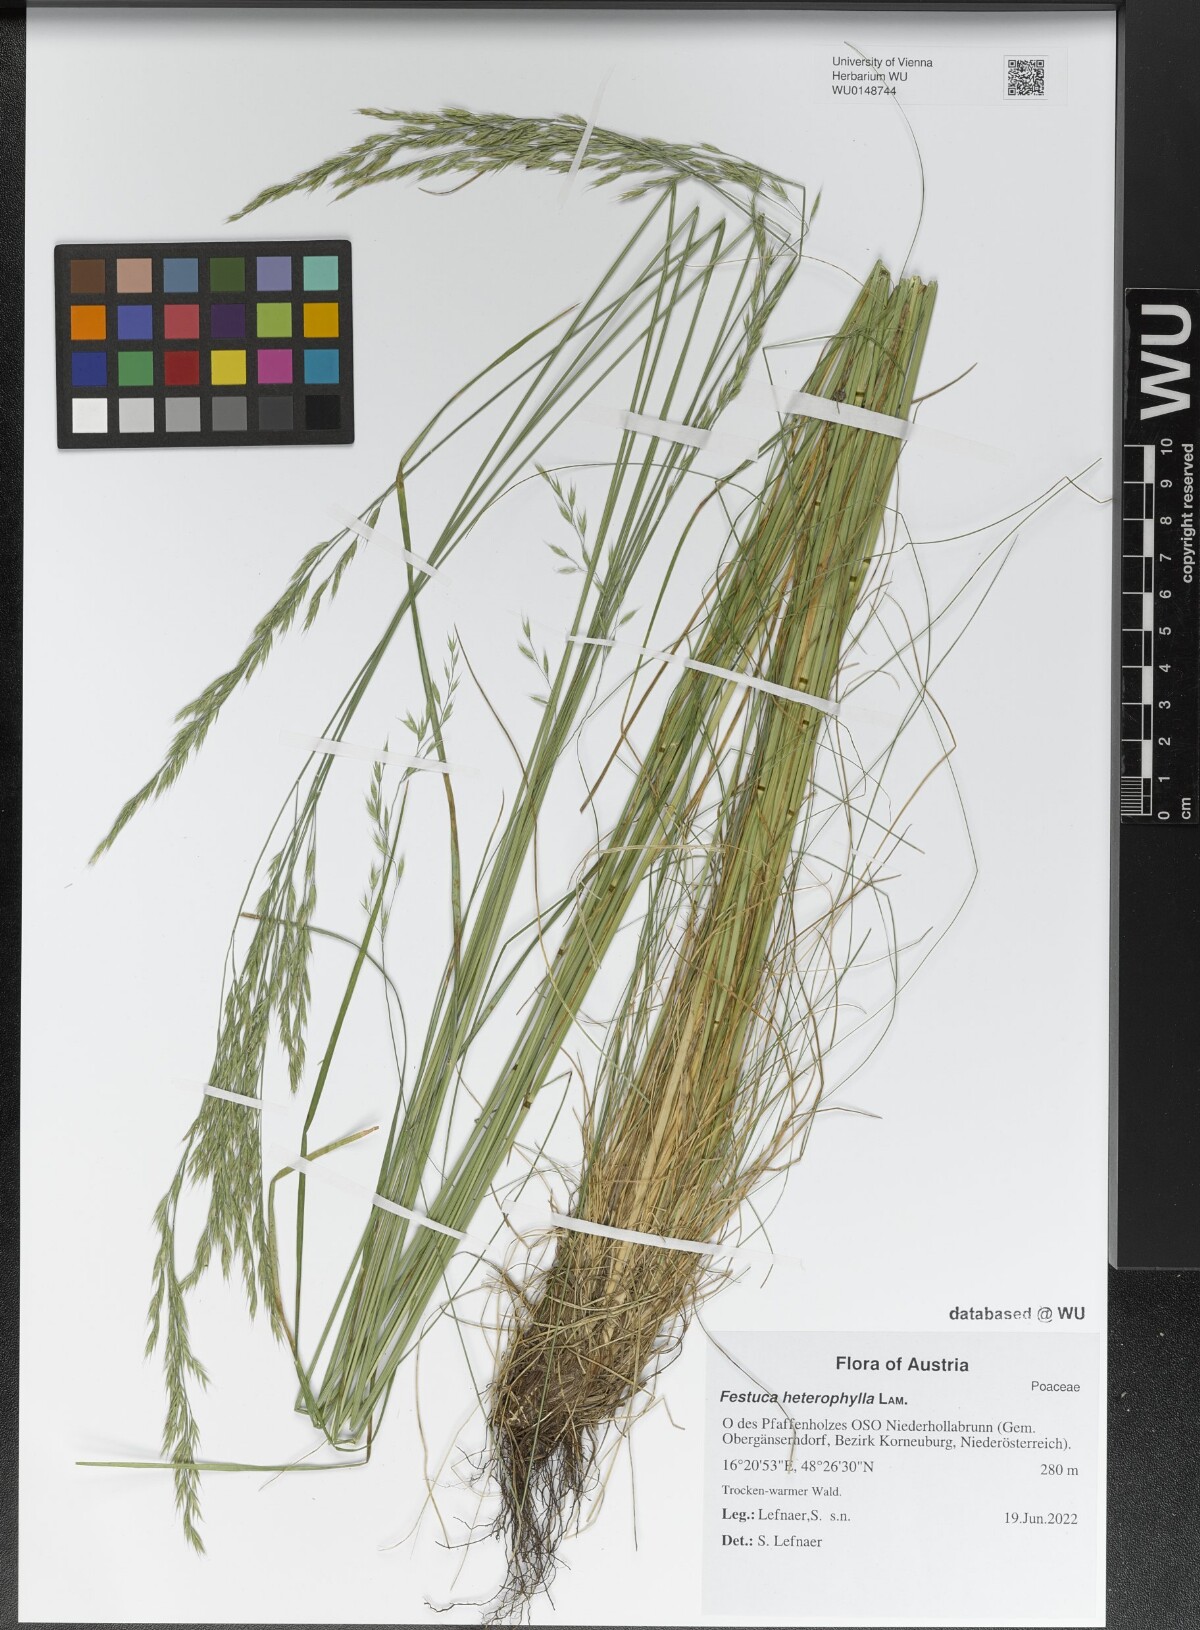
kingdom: Plantae
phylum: Tracheophyta
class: Liliopsida
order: Poales
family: Poaceae
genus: Festuca
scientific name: Festuca heterophylla
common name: Various-leaved fescue
